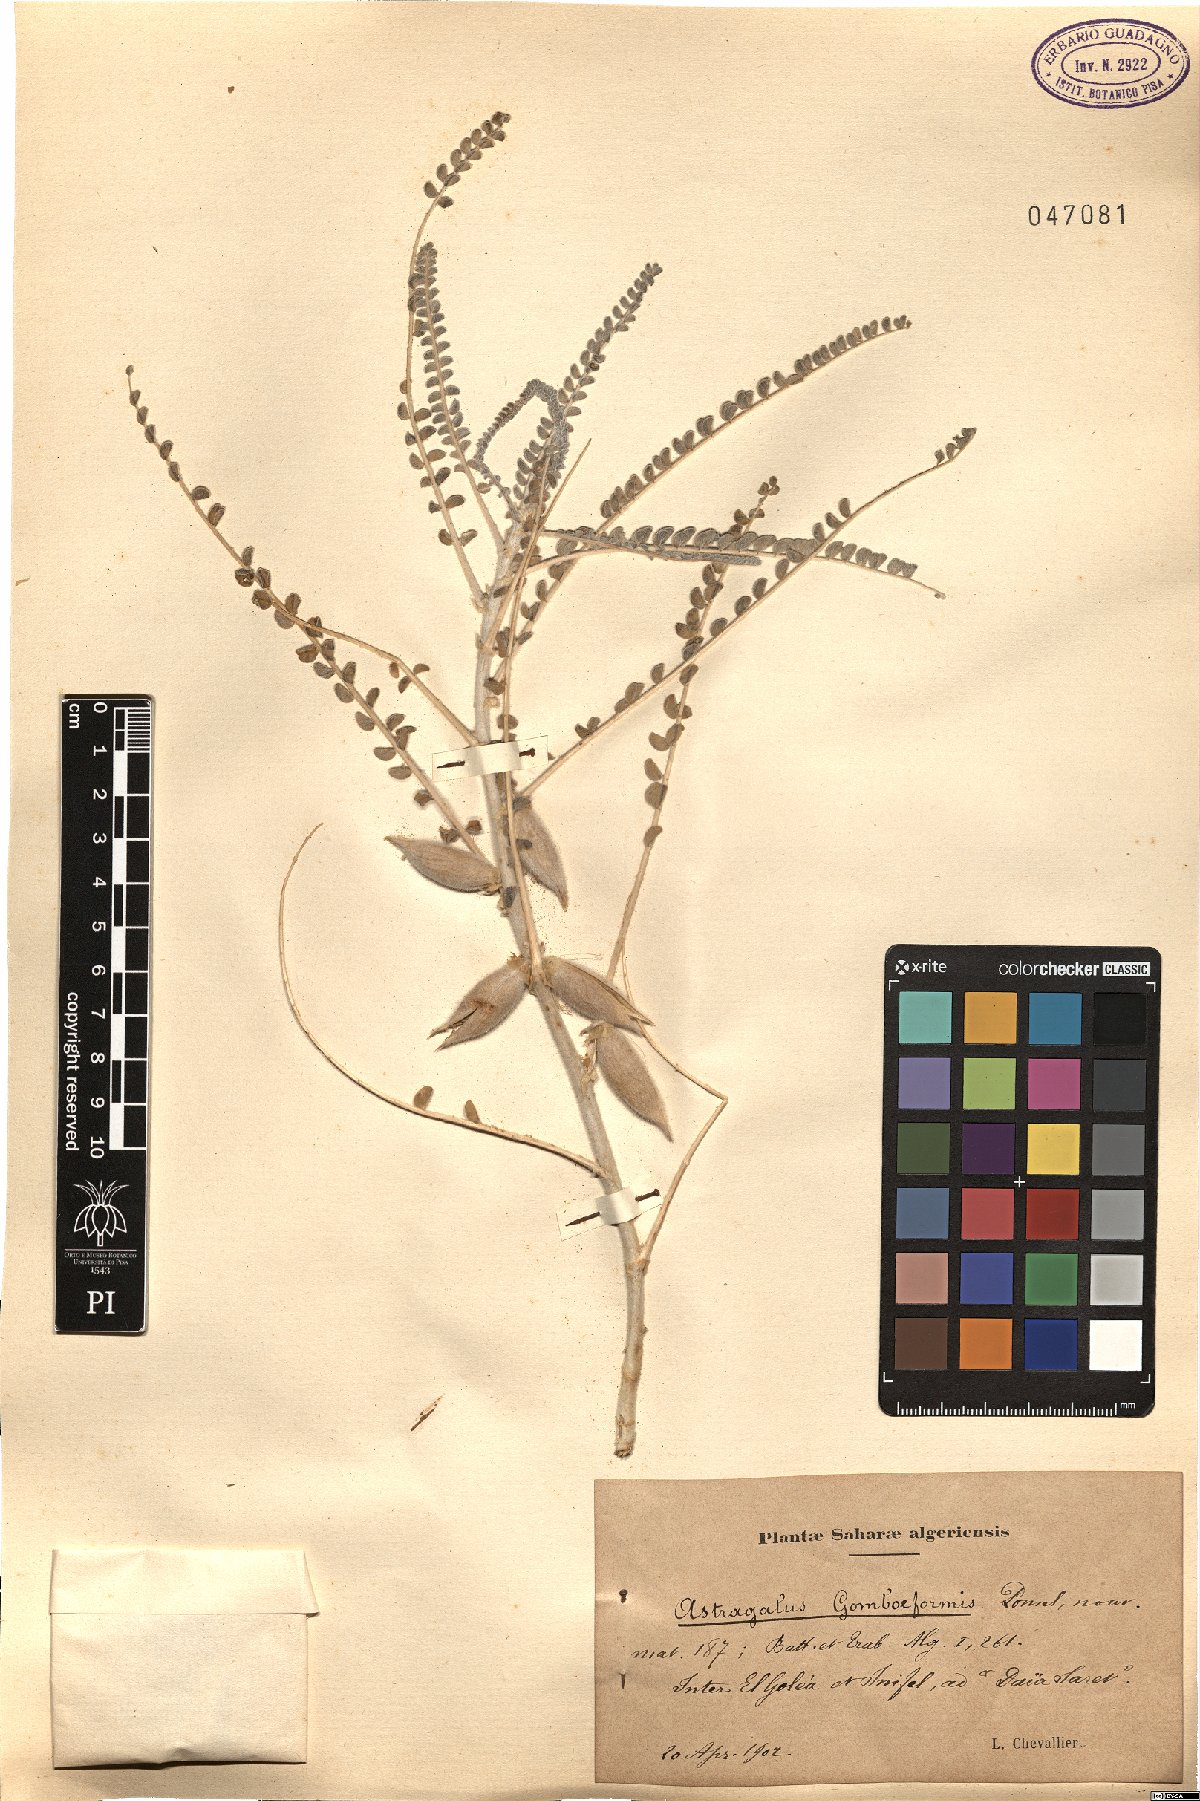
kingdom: Plantae
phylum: Tracheophyta
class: Magnoliopsida
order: Fabales
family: Fabaceae
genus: Astragalus
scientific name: Astragalus gombo
